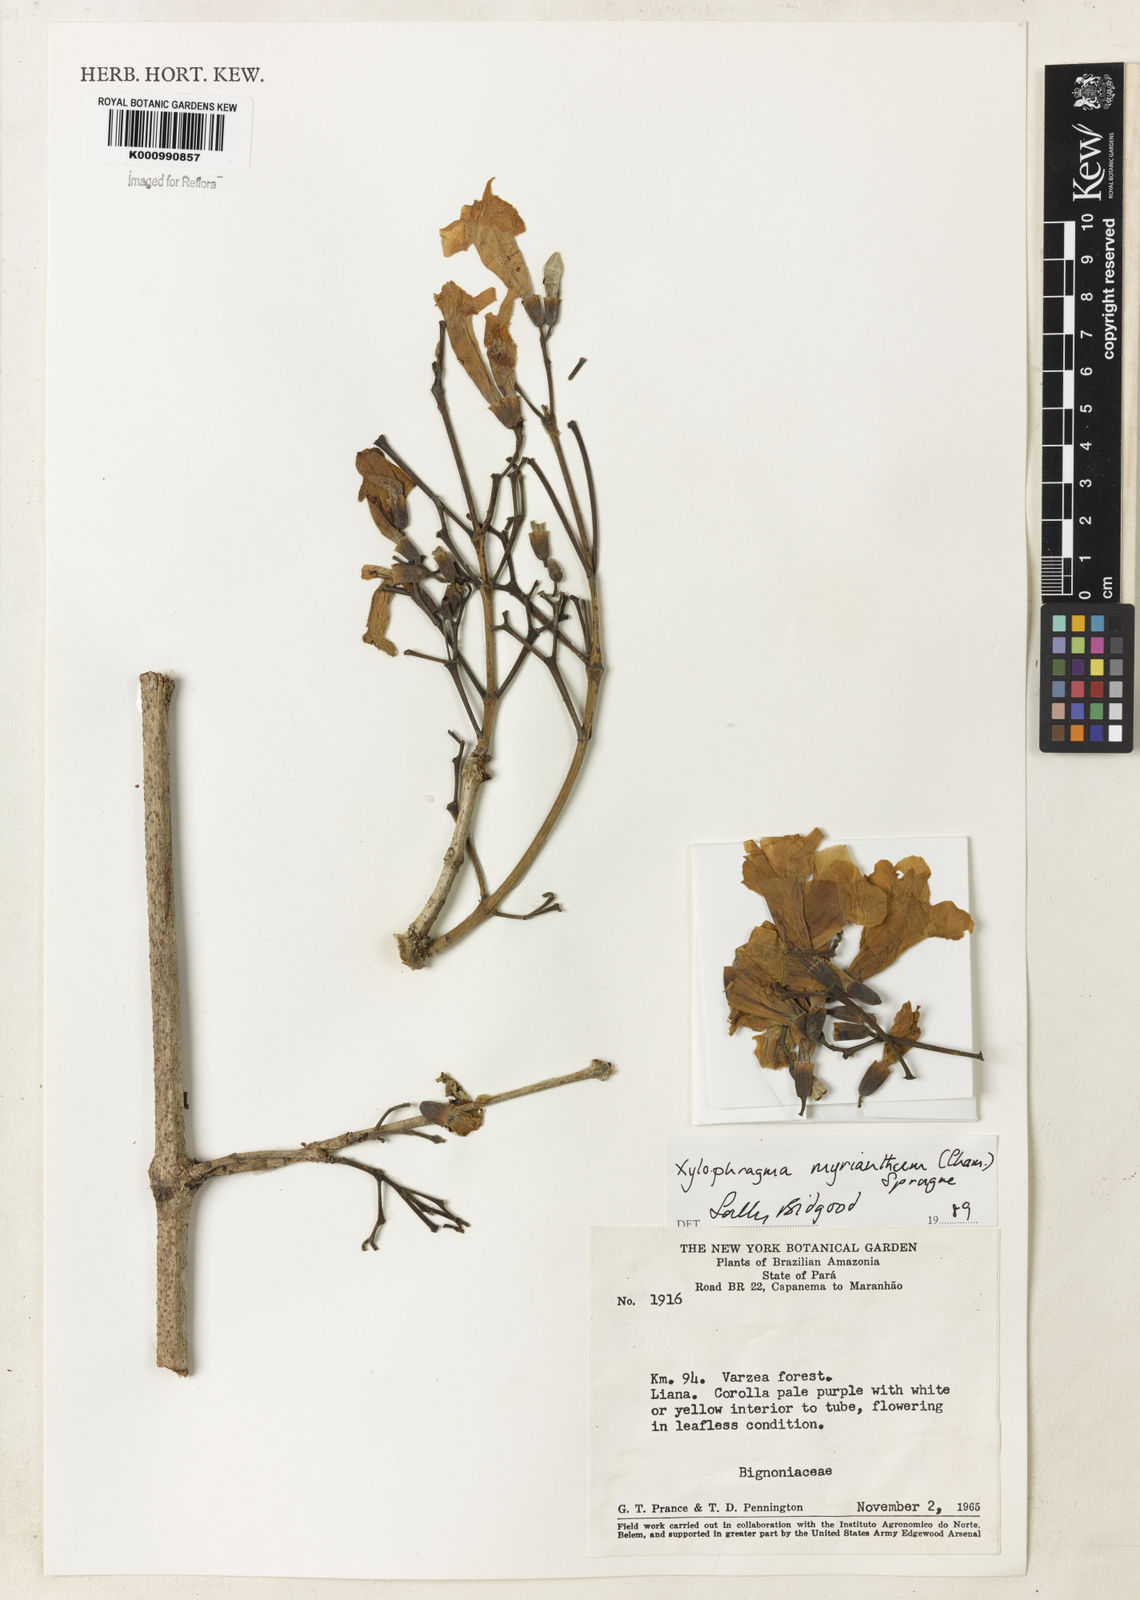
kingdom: Plantae
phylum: Tracheophyta
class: Magnoliopsida
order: Lamiales
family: Bignoniaceae
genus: Xylophragma
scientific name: Xylophragma myrianthum
